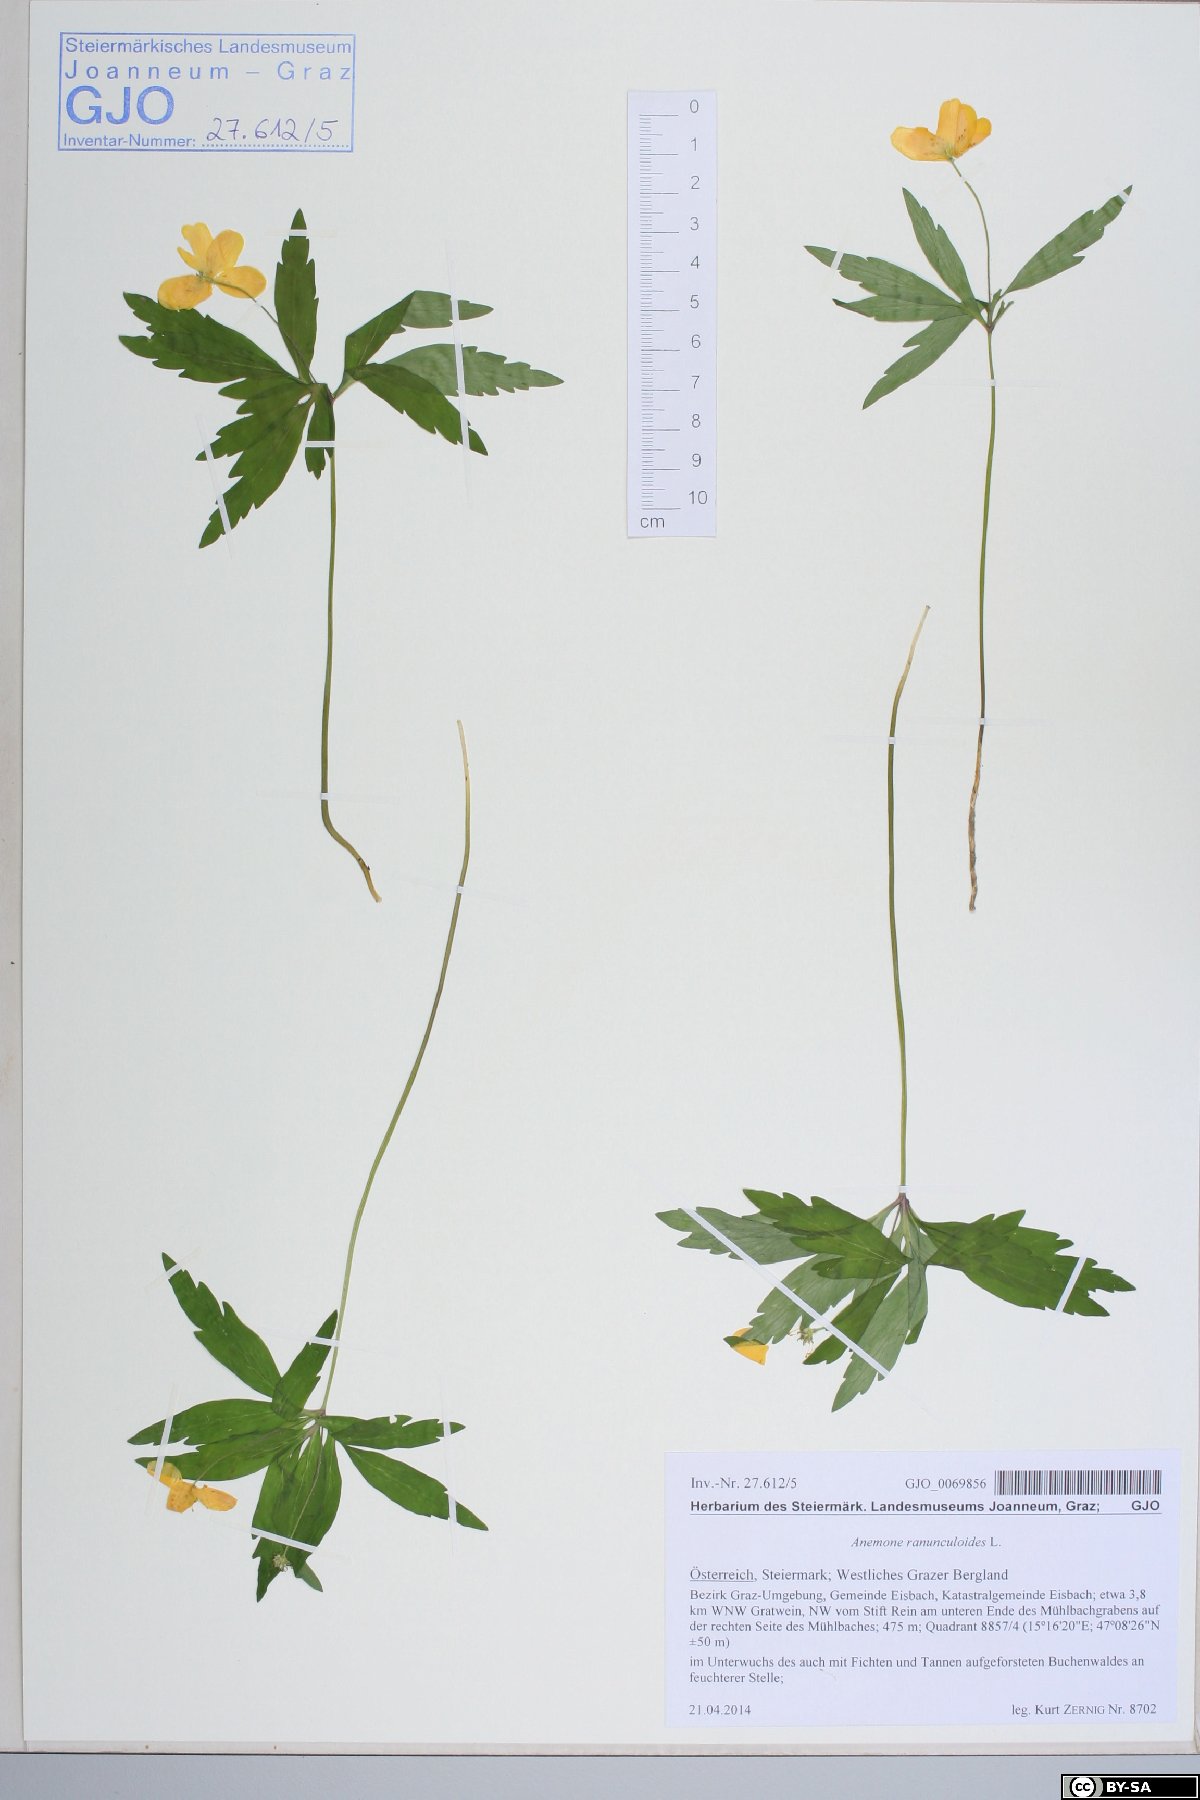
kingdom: Plantae
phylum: Tracheophyta
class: Magnoliopsida
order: Ranunculales
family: Ranunculaceae
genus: Anemone
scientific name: Anemone ranunculoides
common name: Yellow anemone
